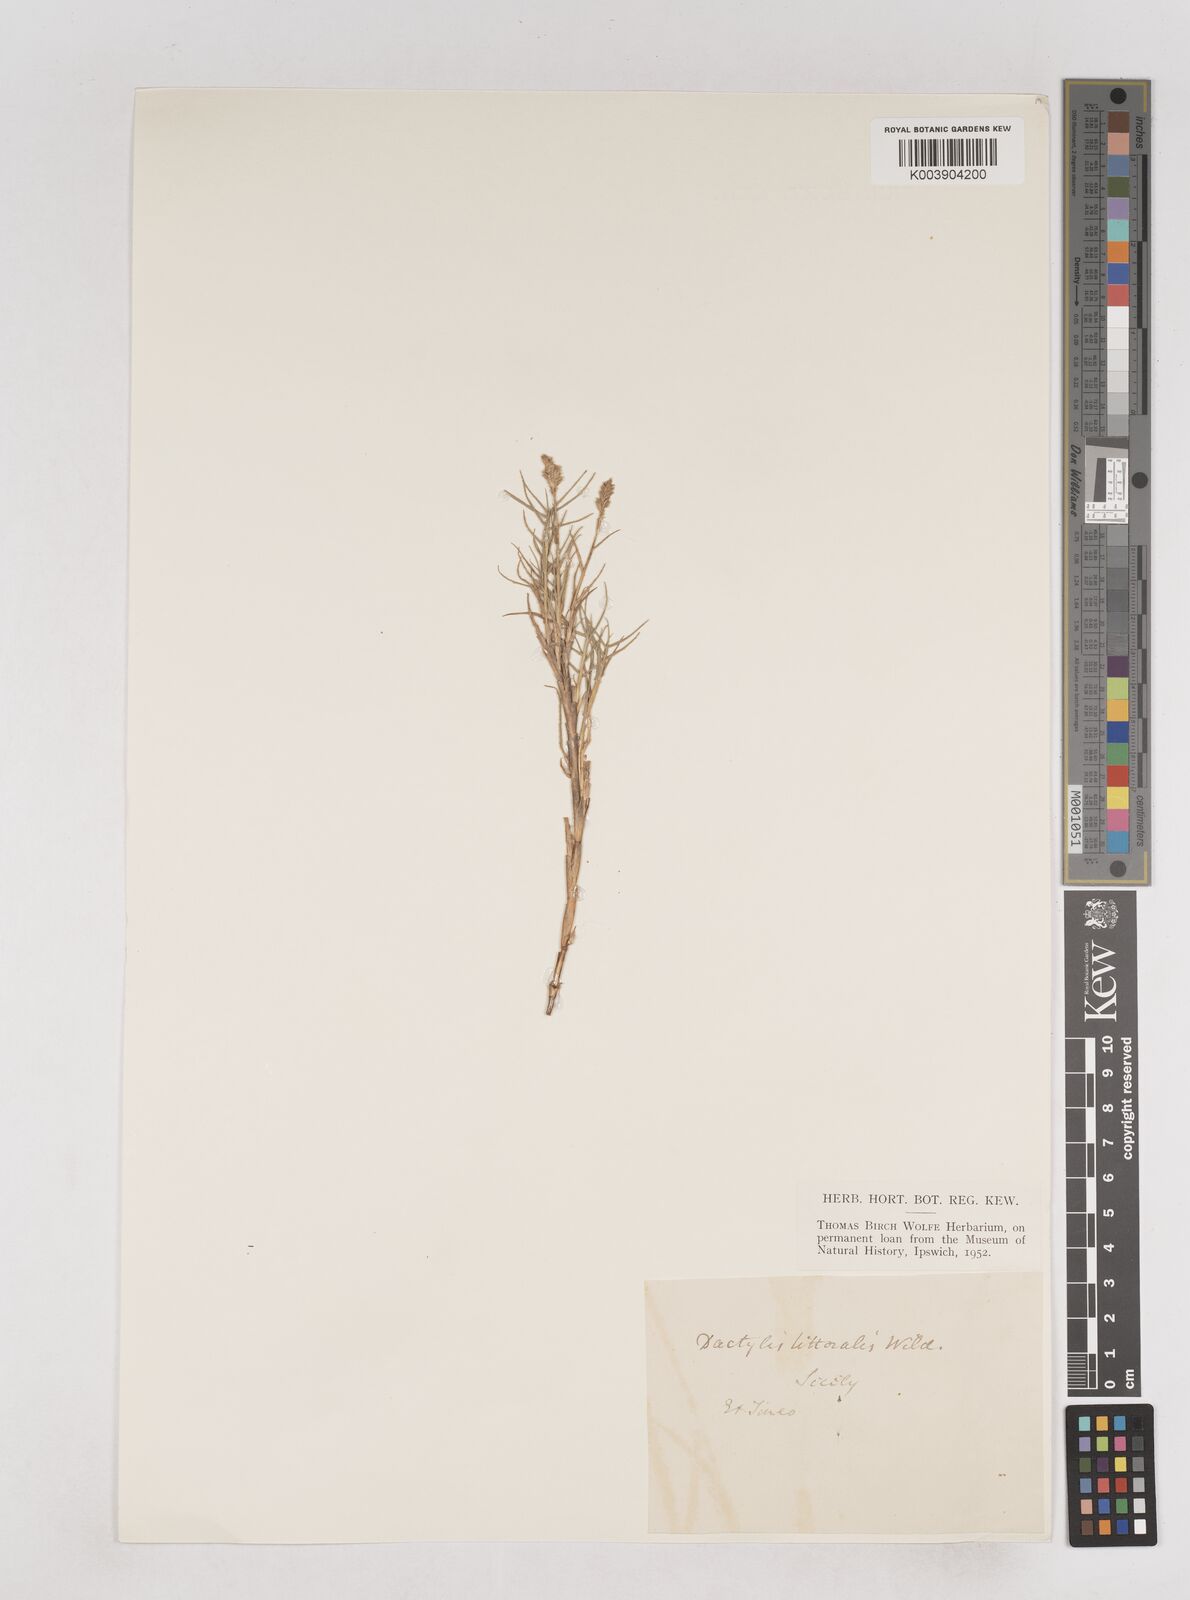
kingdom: Plantae
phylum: Tracheophyta
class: Liliopsida
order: Poales
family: Poaceae
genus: Aeluropus
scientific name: Aeluropus lagopoides
